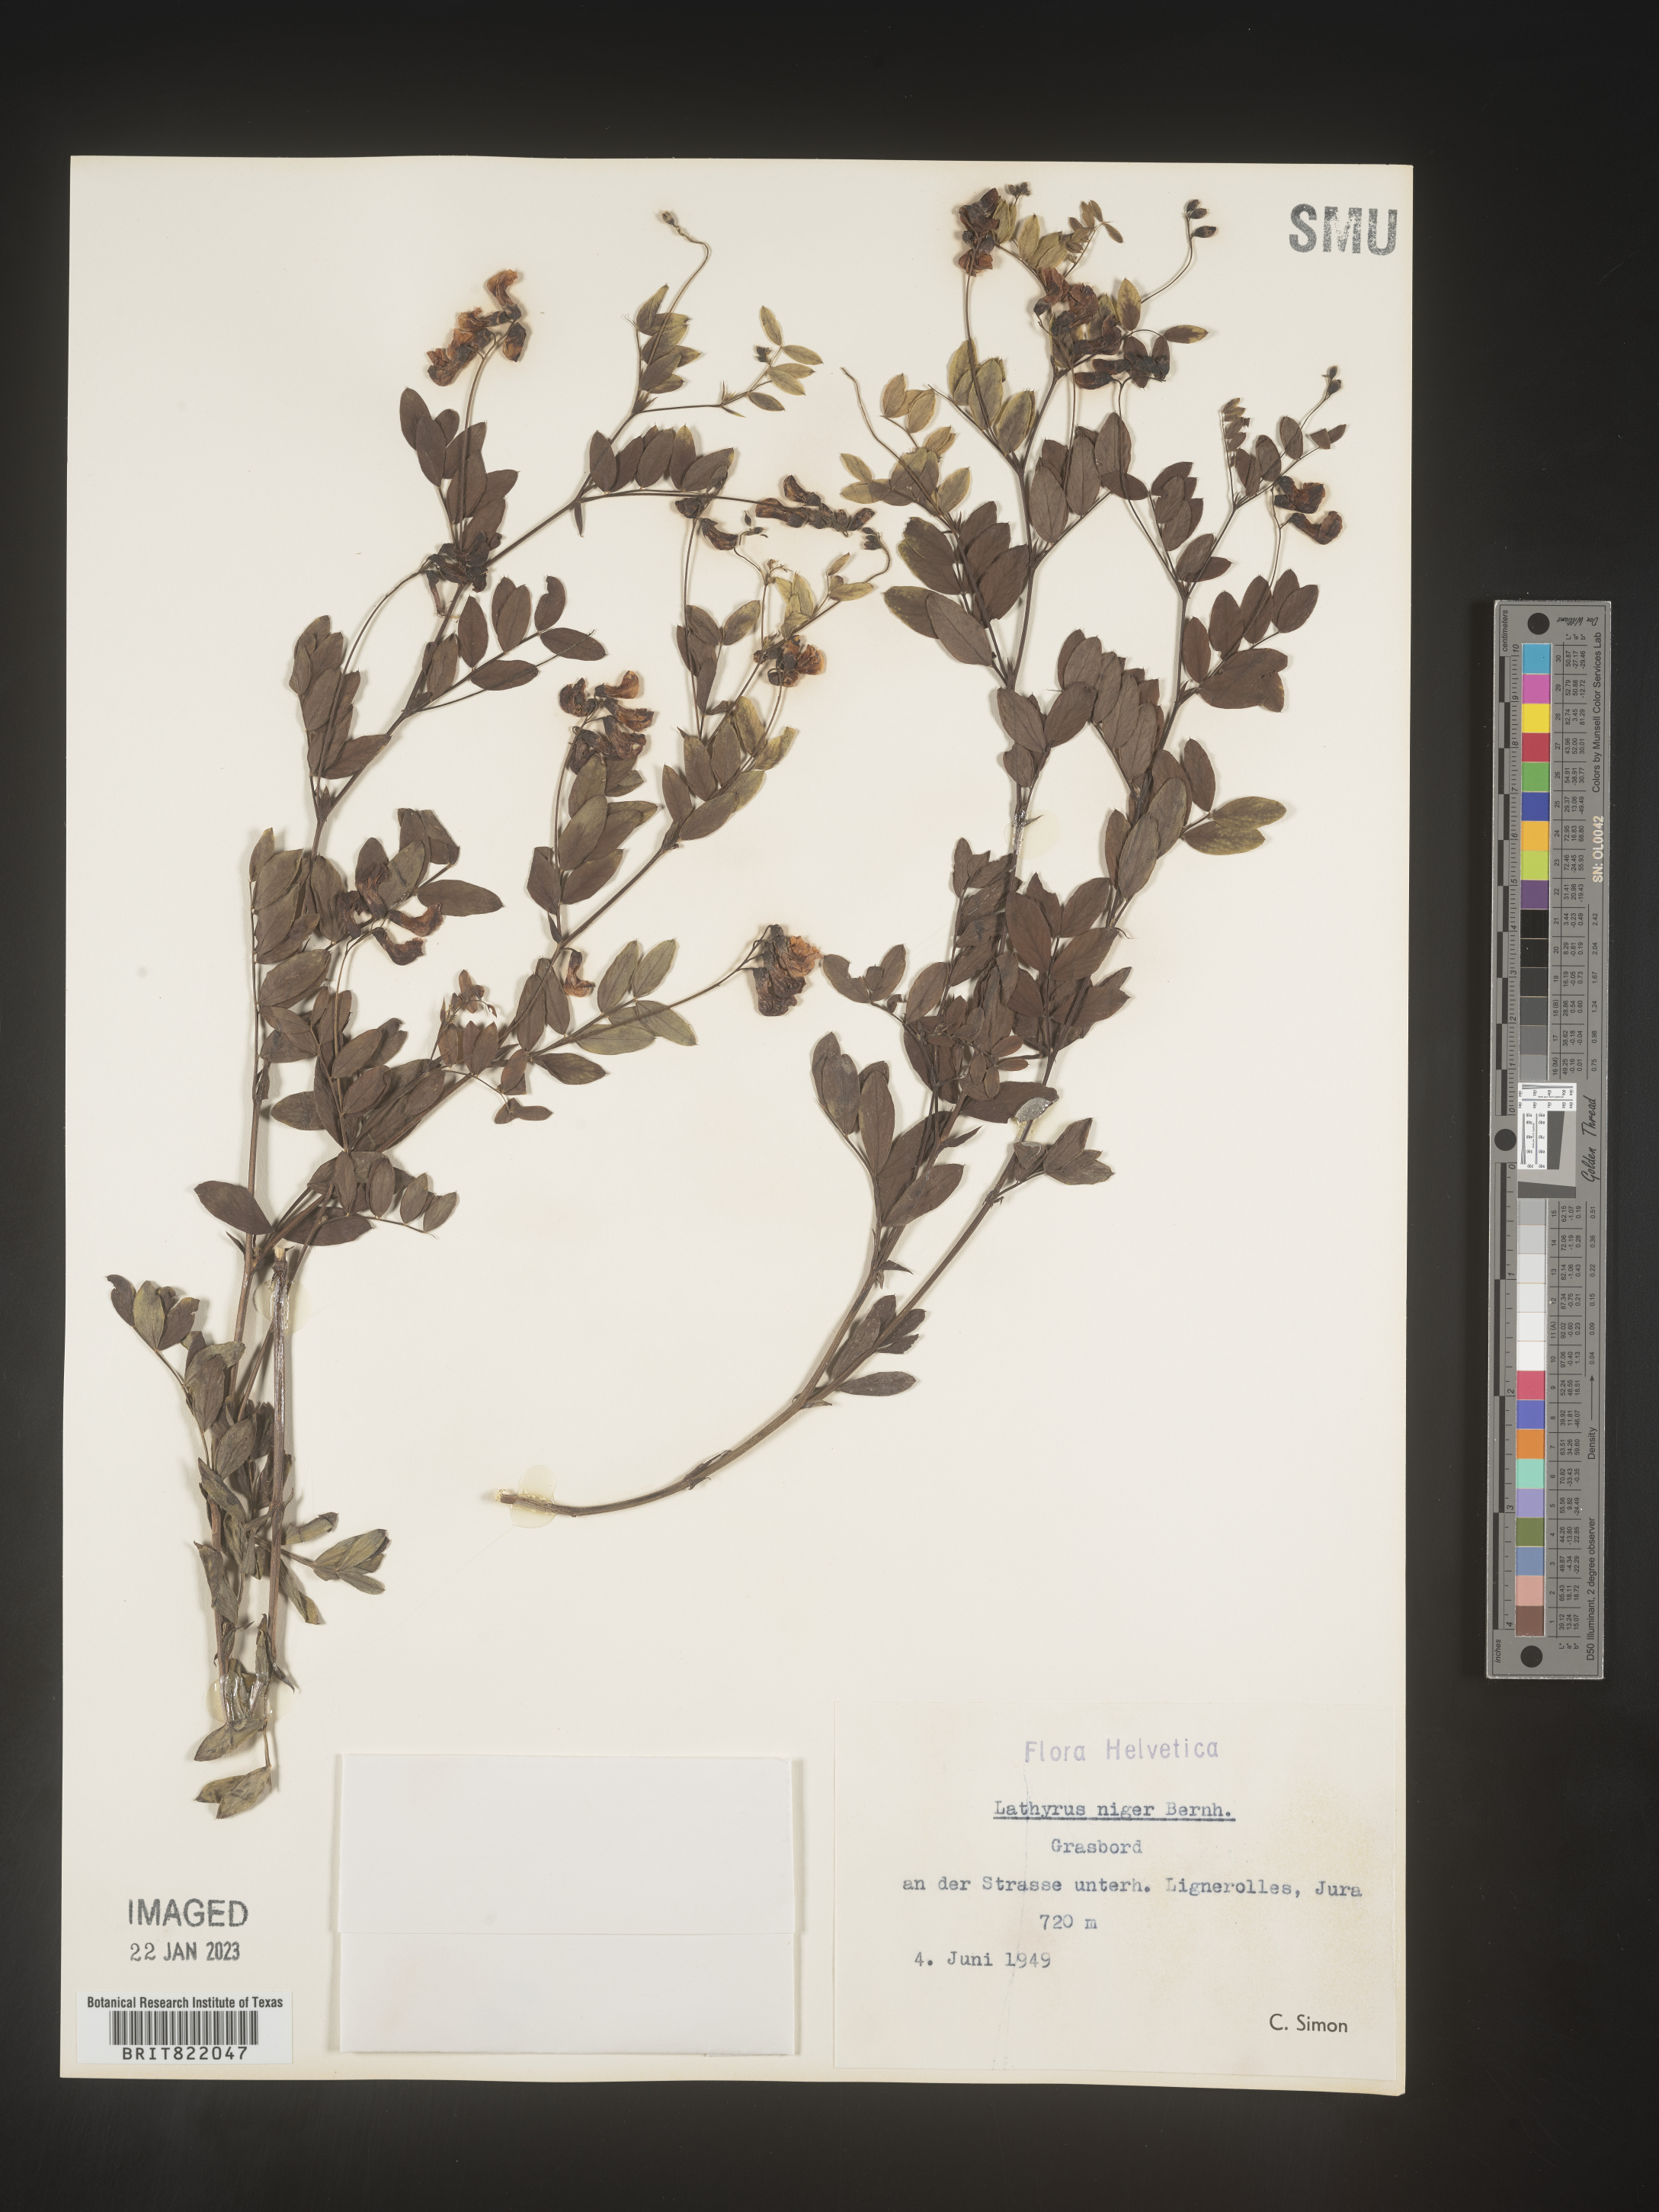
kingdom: Plantae
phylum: Tracheophyta
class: Magnoliopsida
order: Fabales
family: Fabaceae
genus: Lathyrus
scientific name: Lathyrus
